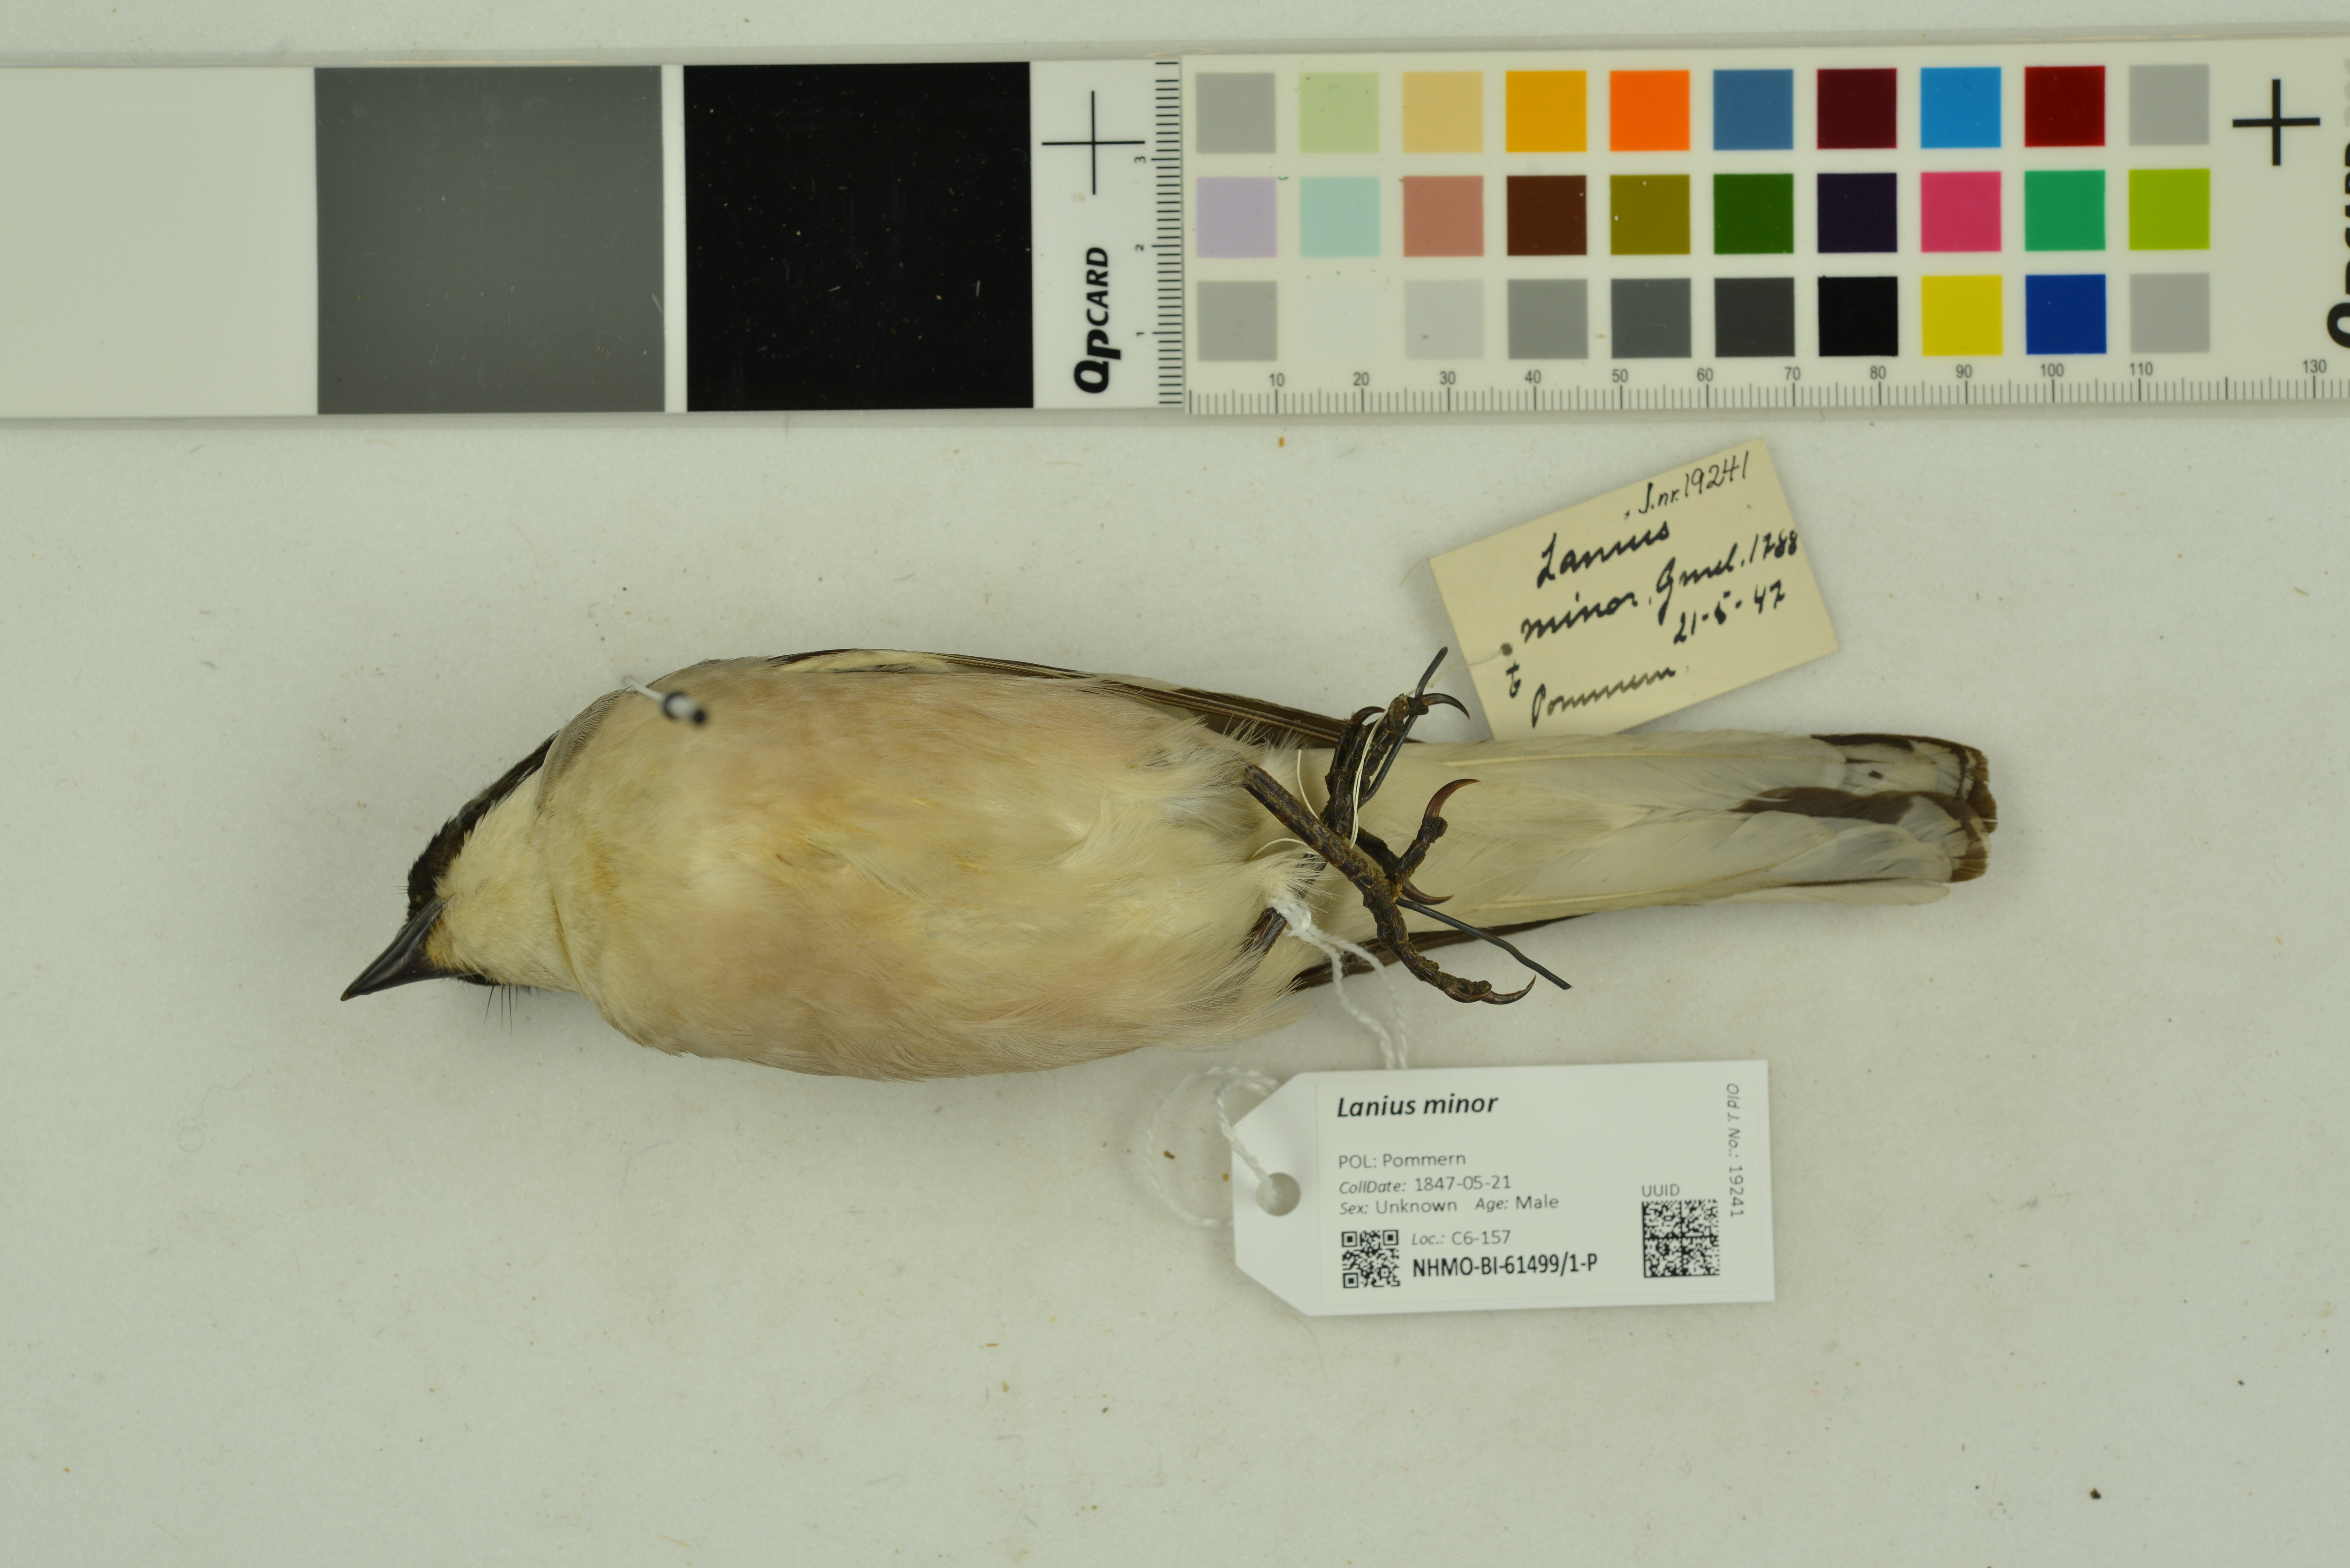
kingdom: Animalia
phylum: Chordata
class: Aves
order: Passeriformes
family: Laniidae
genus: Lanius
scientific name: Lanius minor
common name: Lesser grey shrike
